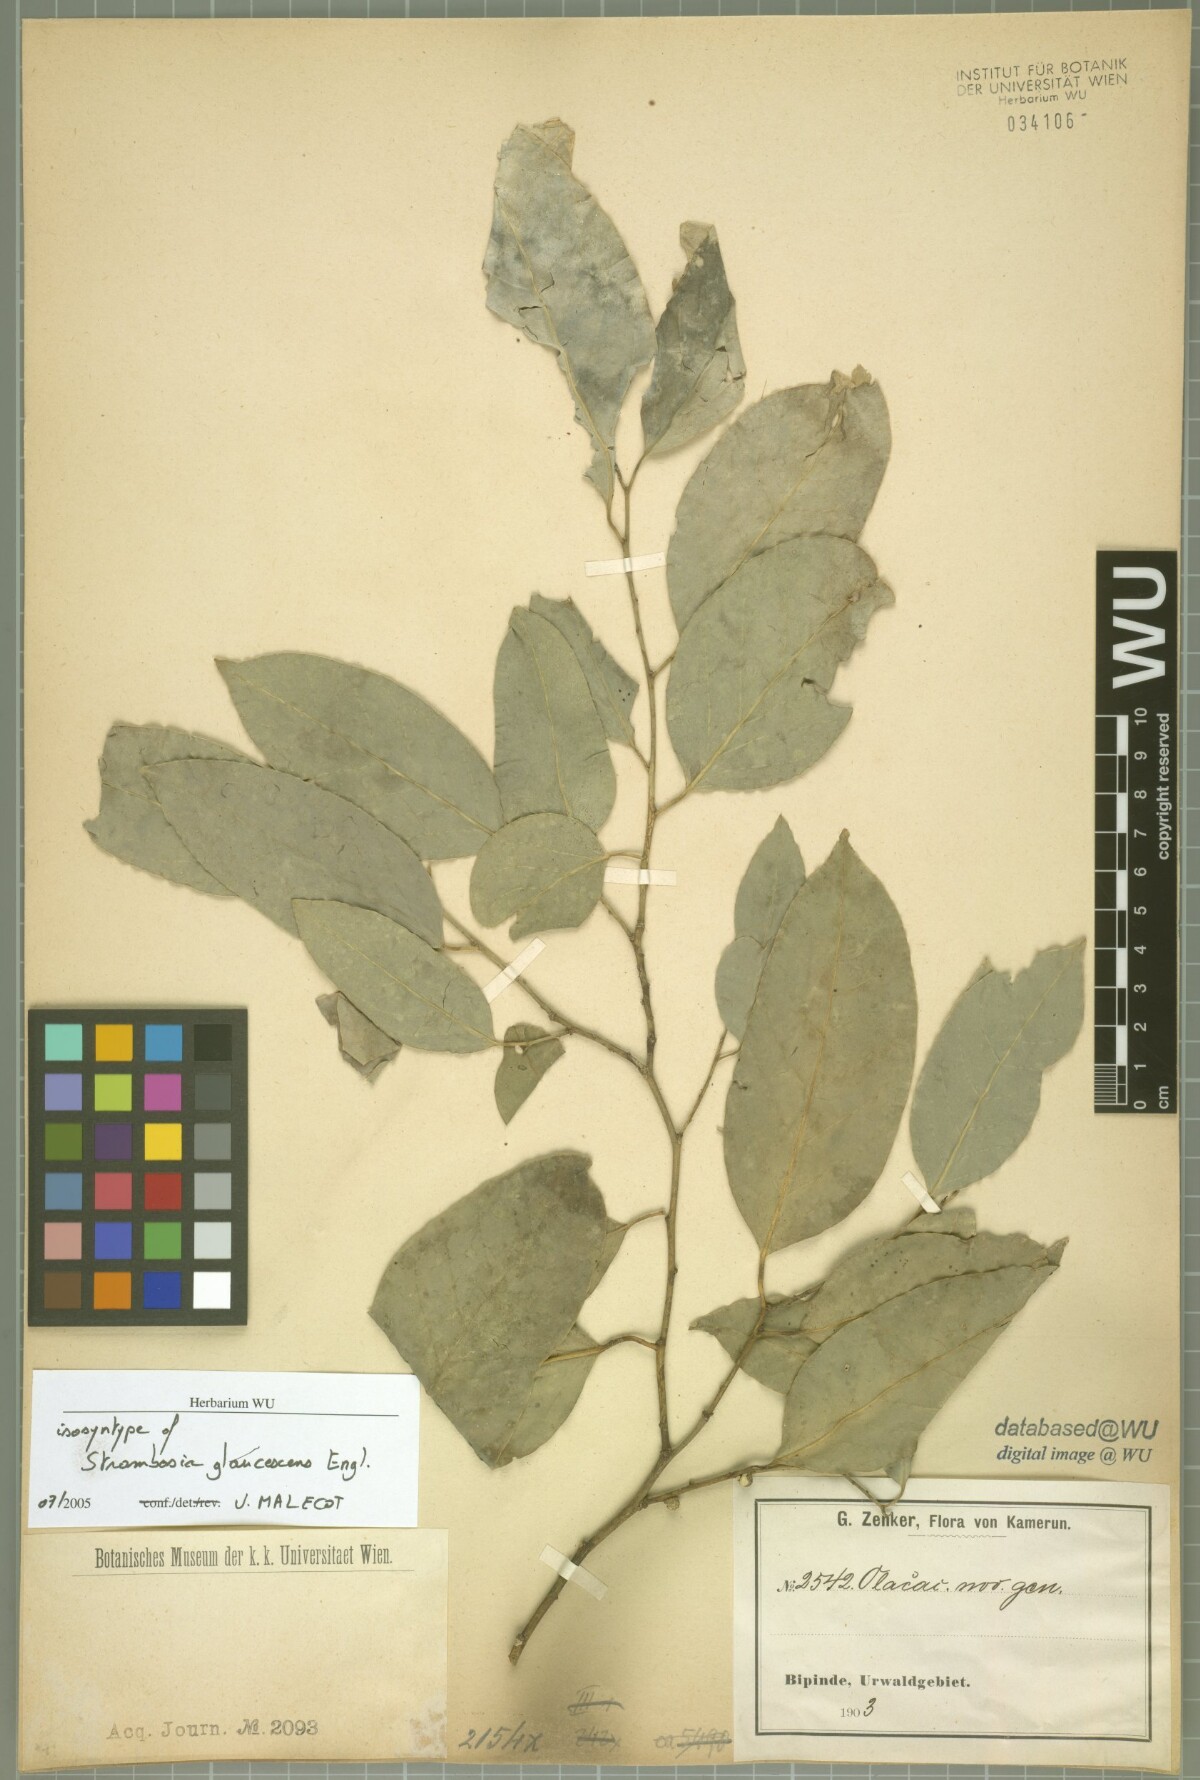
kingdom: Plantae
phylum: Tracheophyta
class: Magnoliopsida
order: Santalales
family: Strombosiaceae
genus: Strombosia
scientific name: Strombosia pustulata
